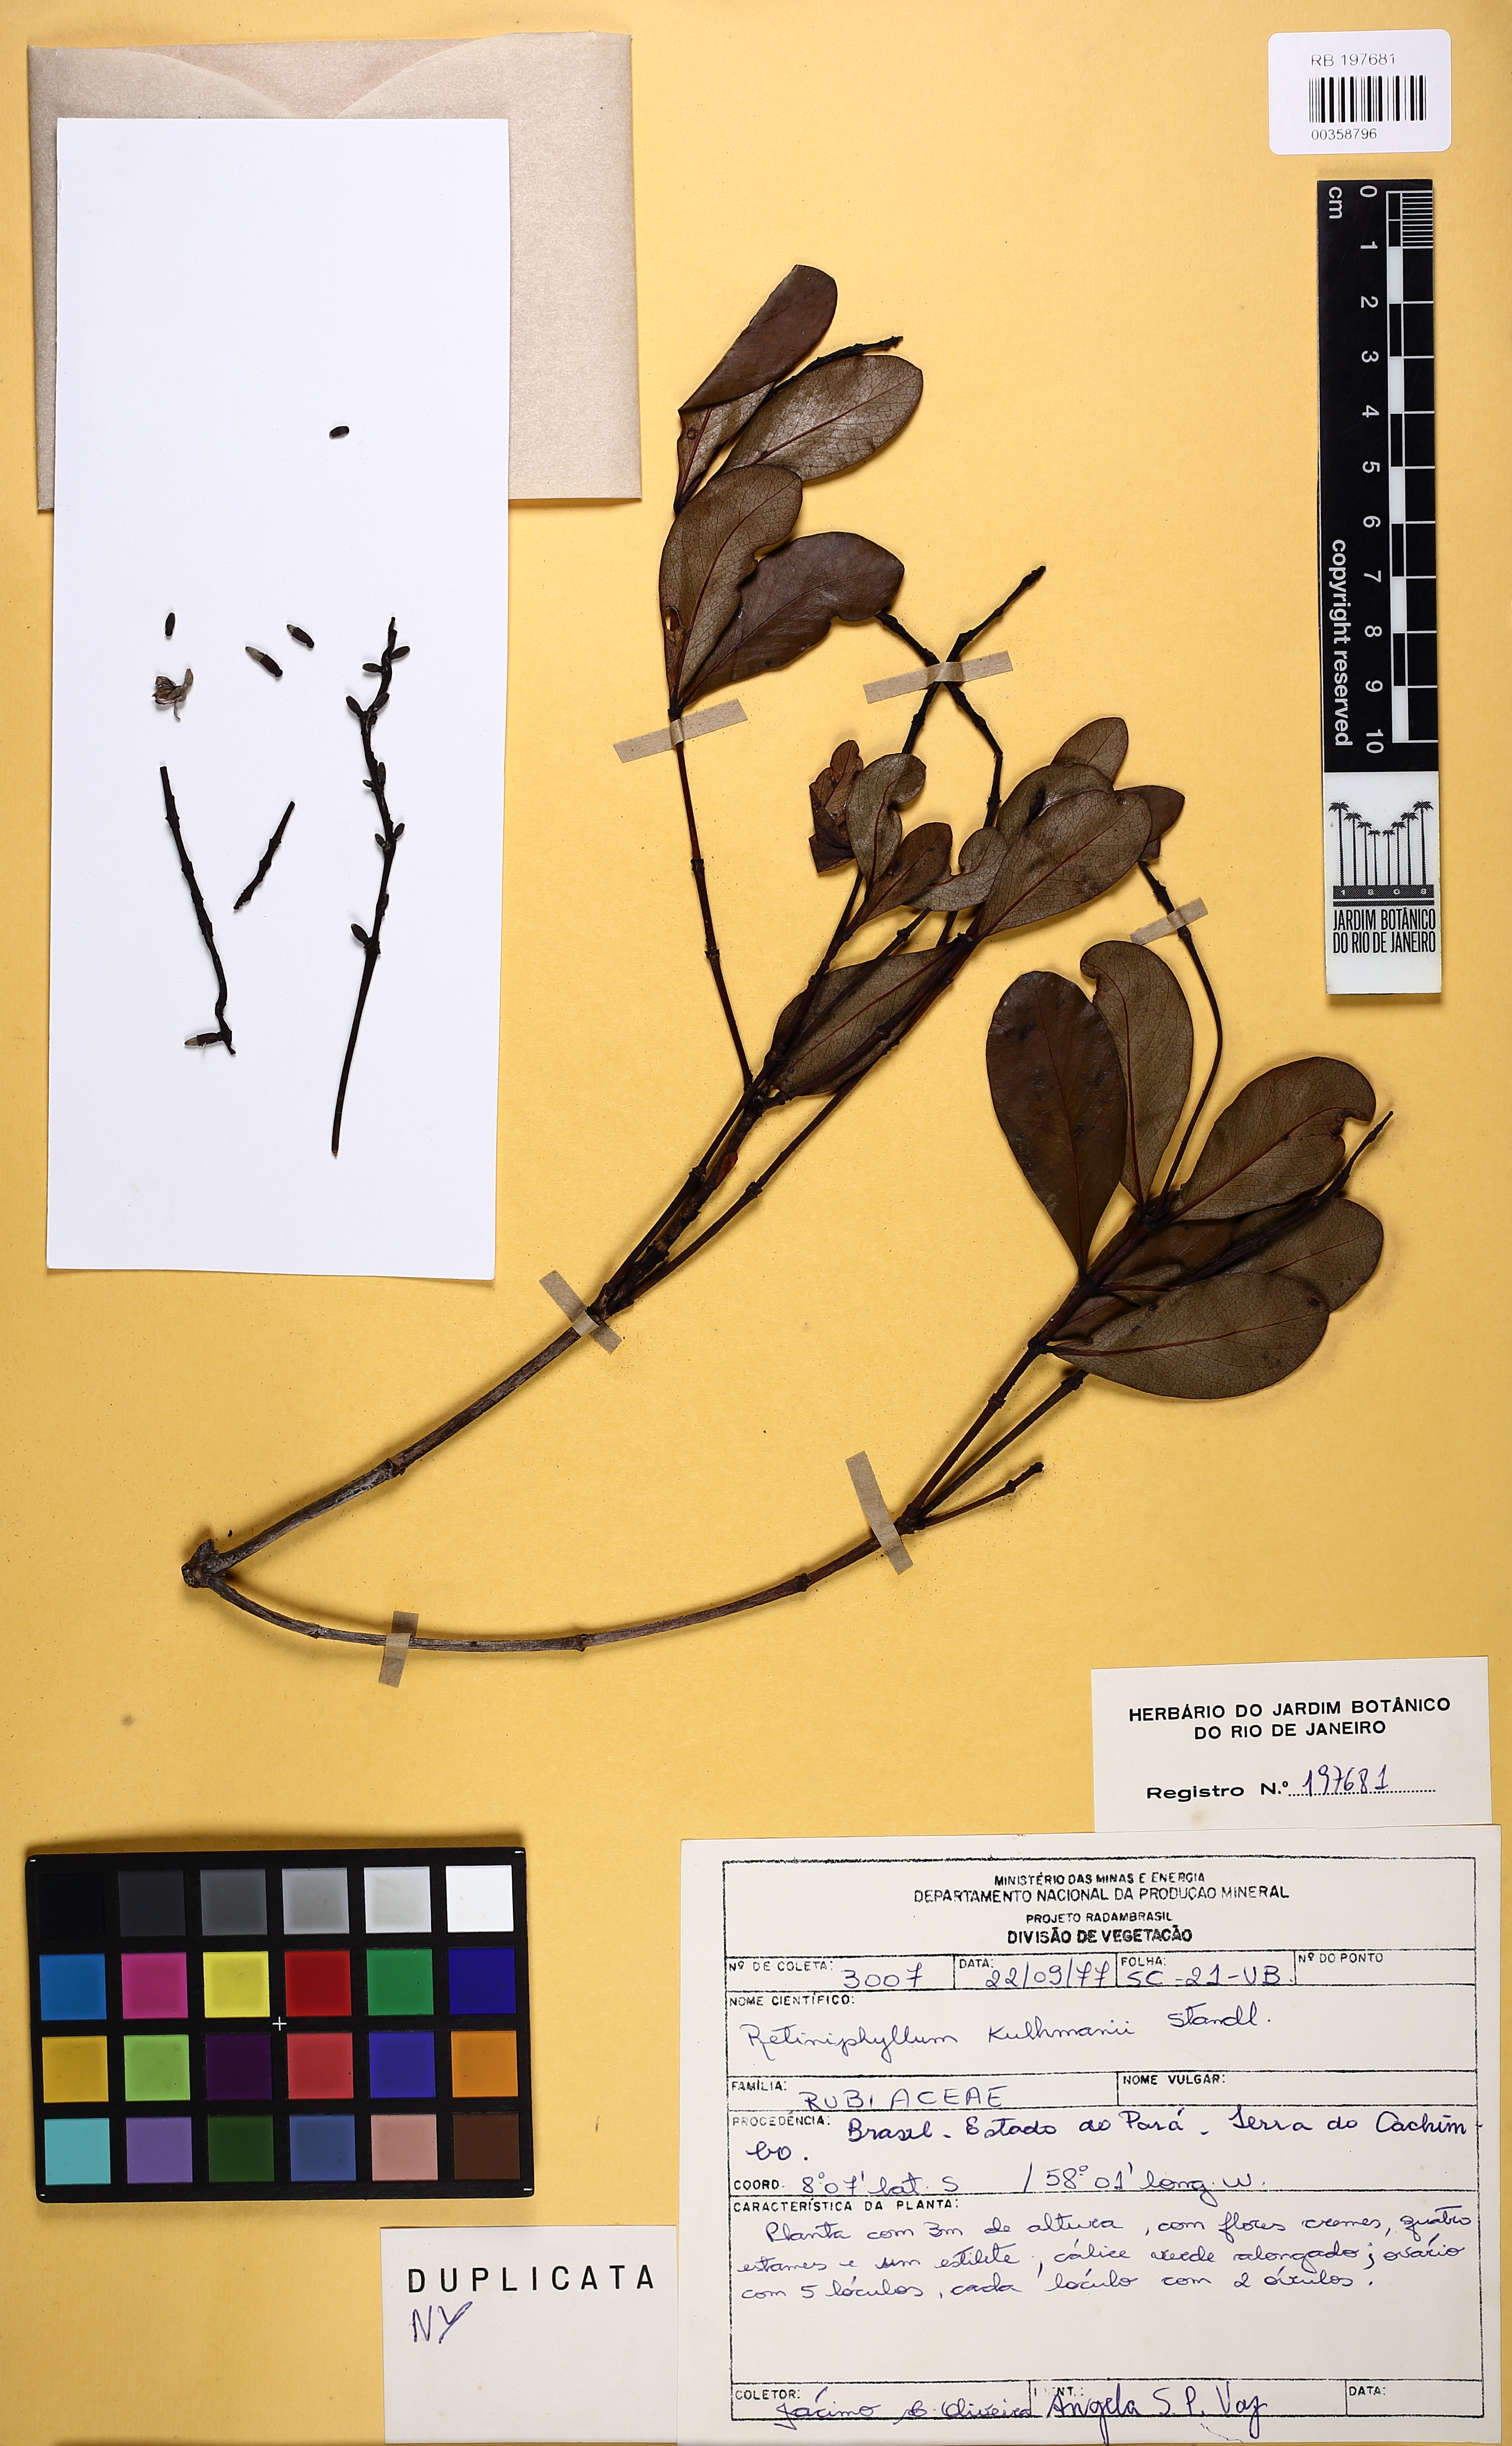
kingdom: Plantae
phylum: Tracheophyta
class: Magnoliopsida
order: Gentianales
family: Rubiaceae
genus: Retiniphyllum
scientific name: Retiniphyllum kuhlmannii
